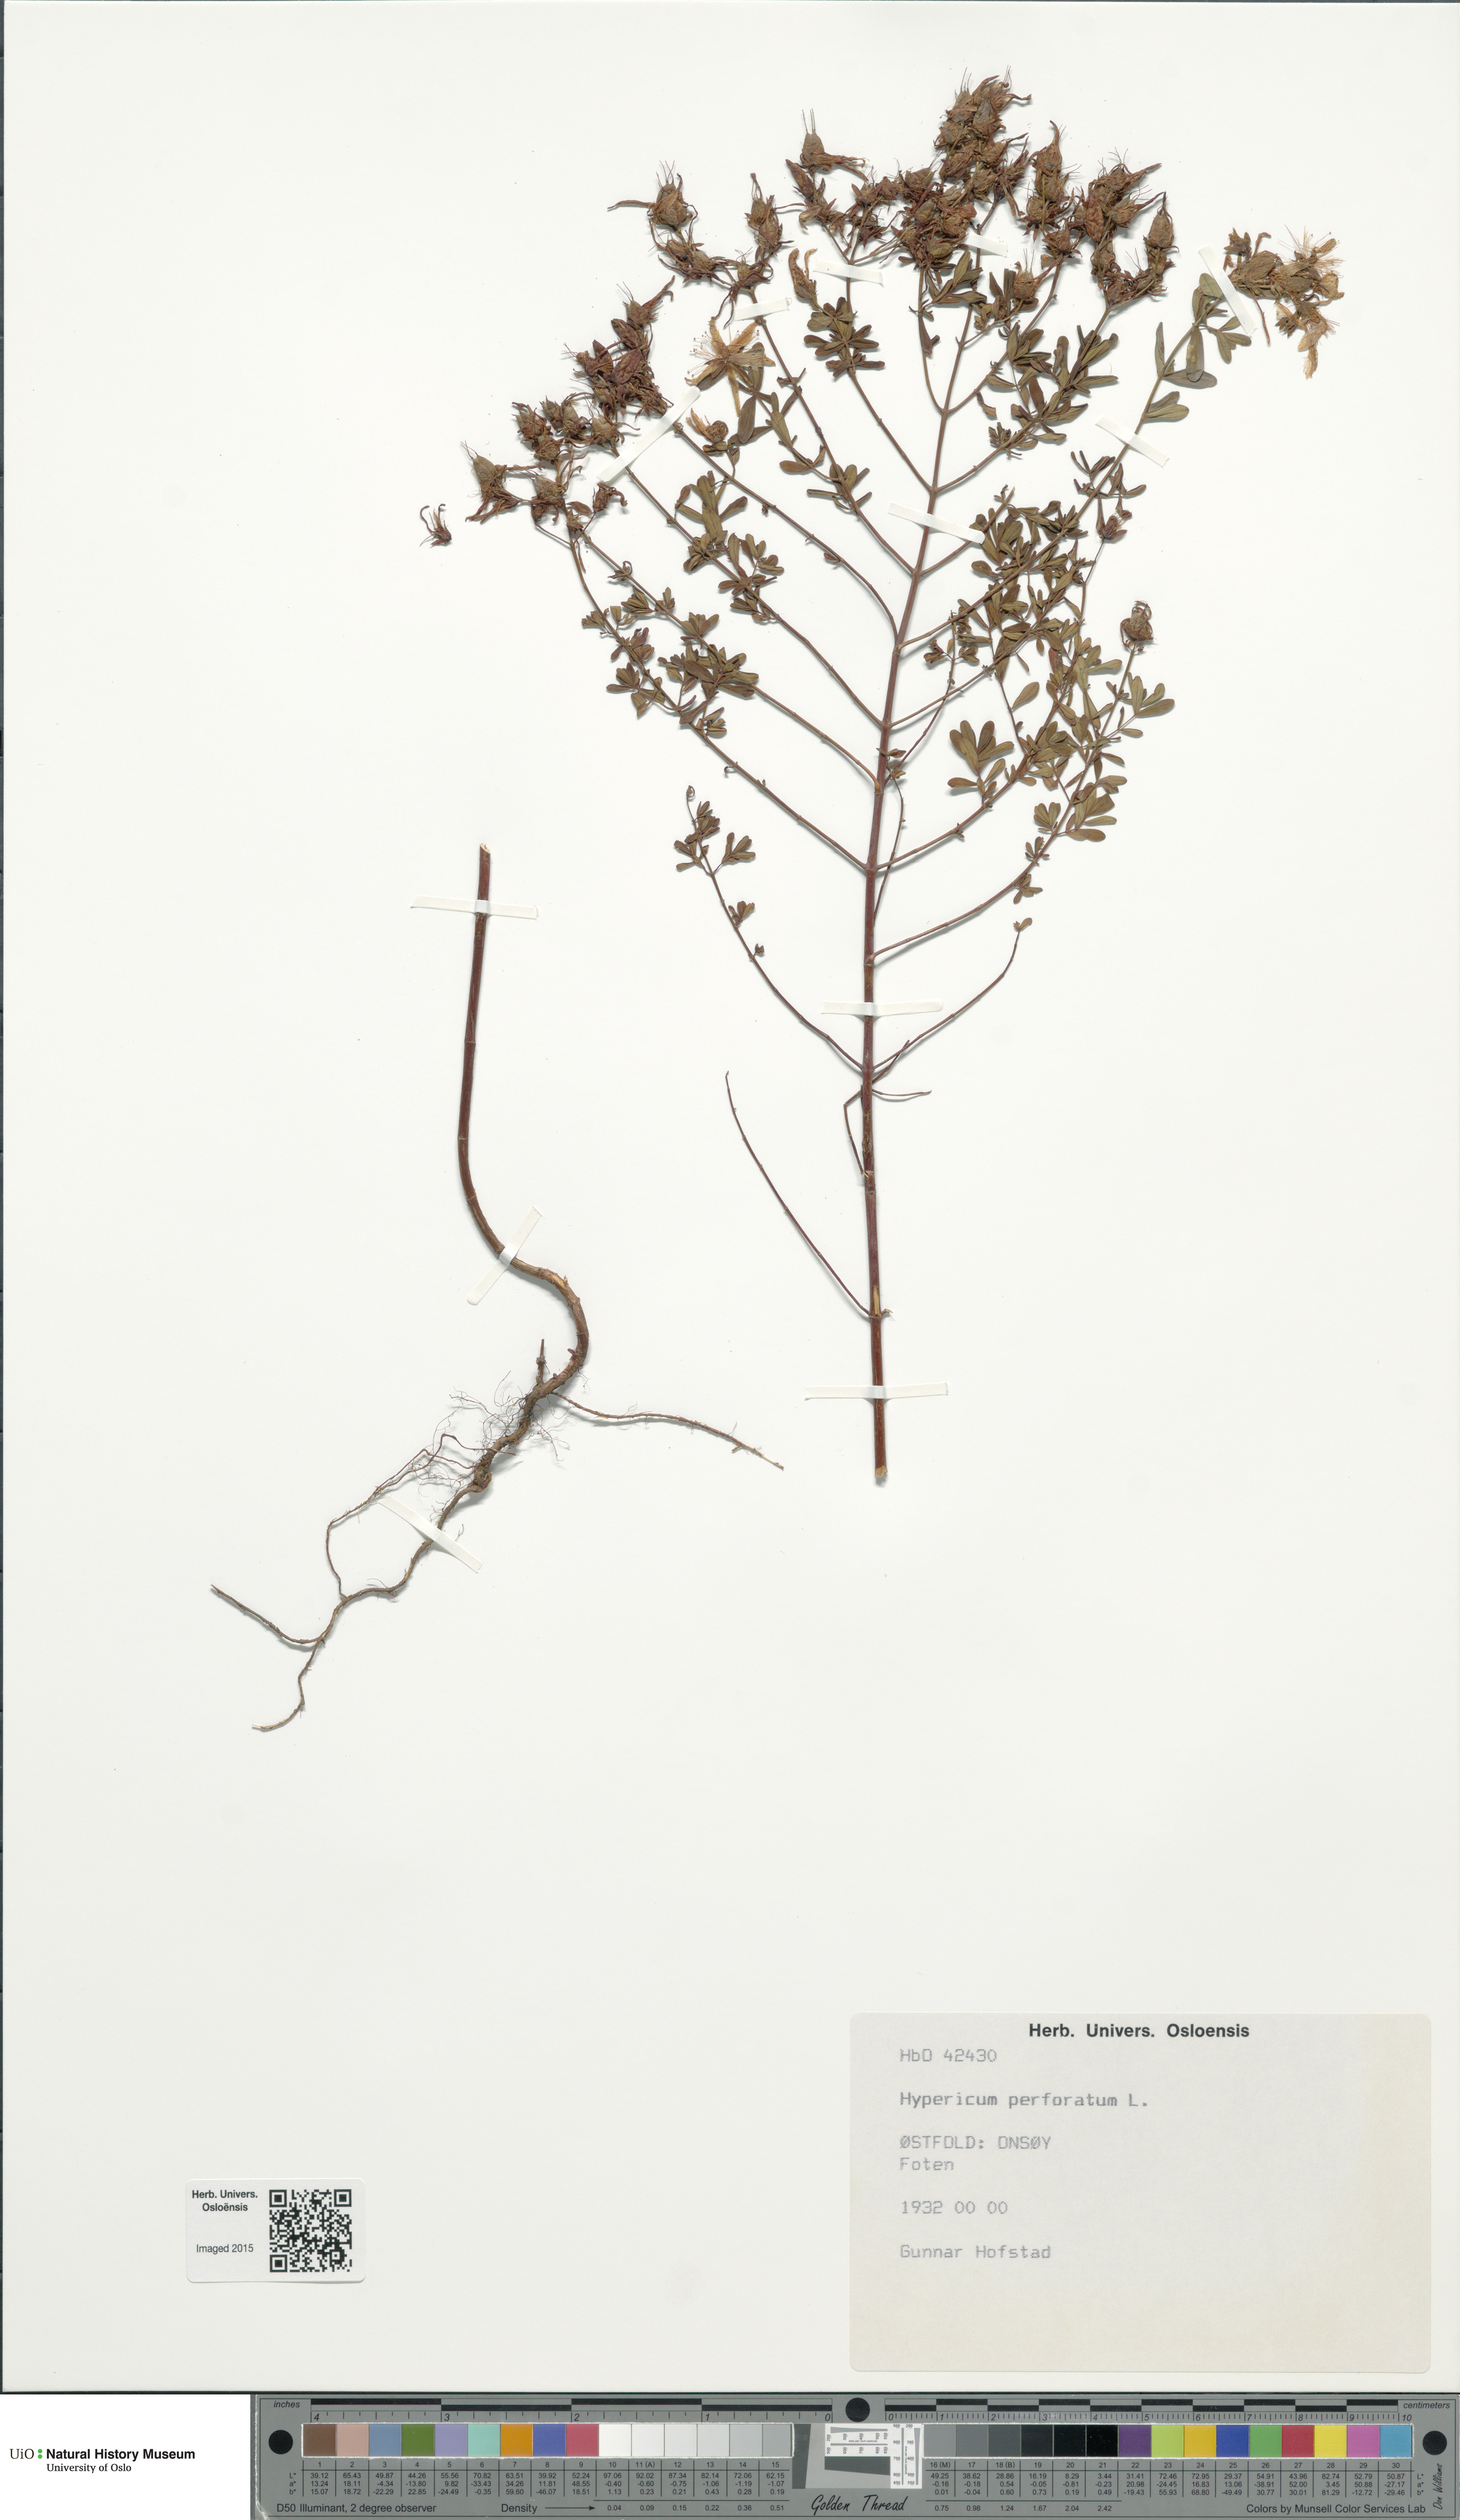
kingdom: Plantae
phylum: Tracheophyta
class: Magnoliopsida
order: Malpighiales
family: Hypericaceae
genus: Hypericum
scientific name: Hypericum perforatum
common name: Common st. johnswort
